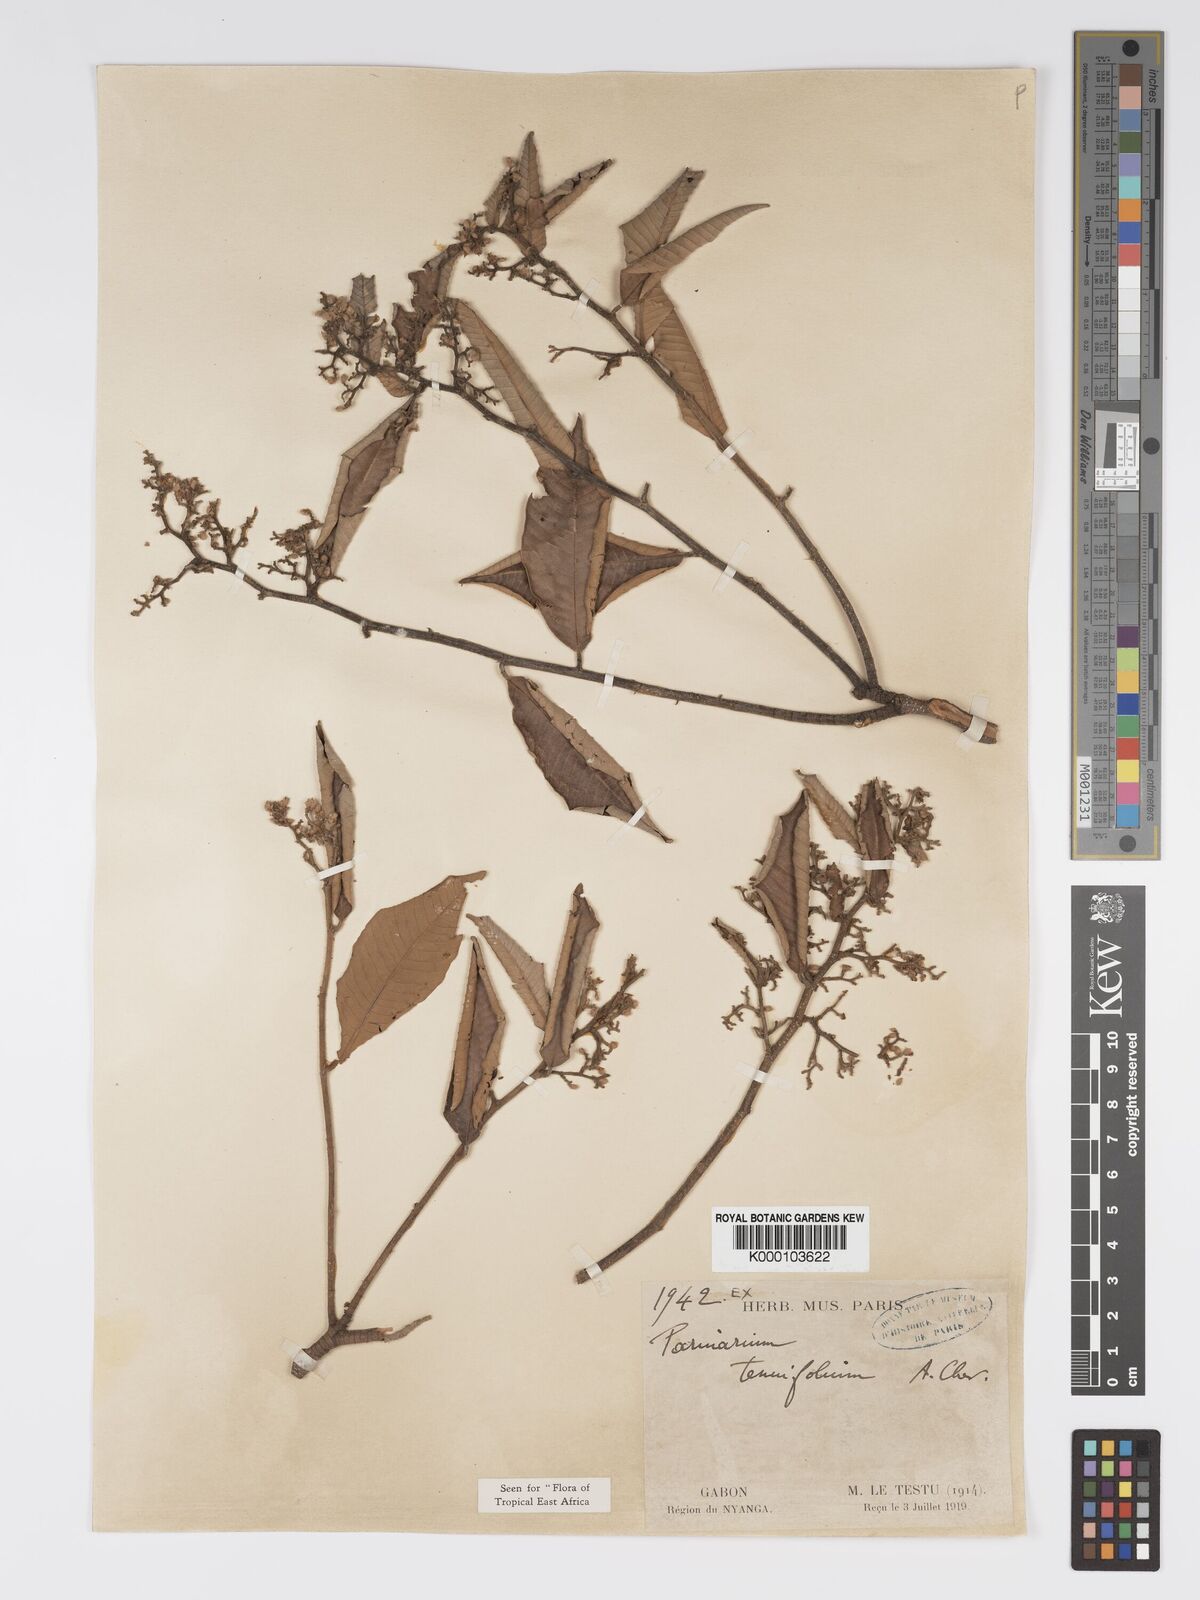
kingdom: Plantae
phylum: Tracheophyta
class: Magnoliopsida
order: Malpighiales
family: Chrysobalanaceae
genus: Parinari
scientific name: Parinari excelsa
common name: Guinea-plum
